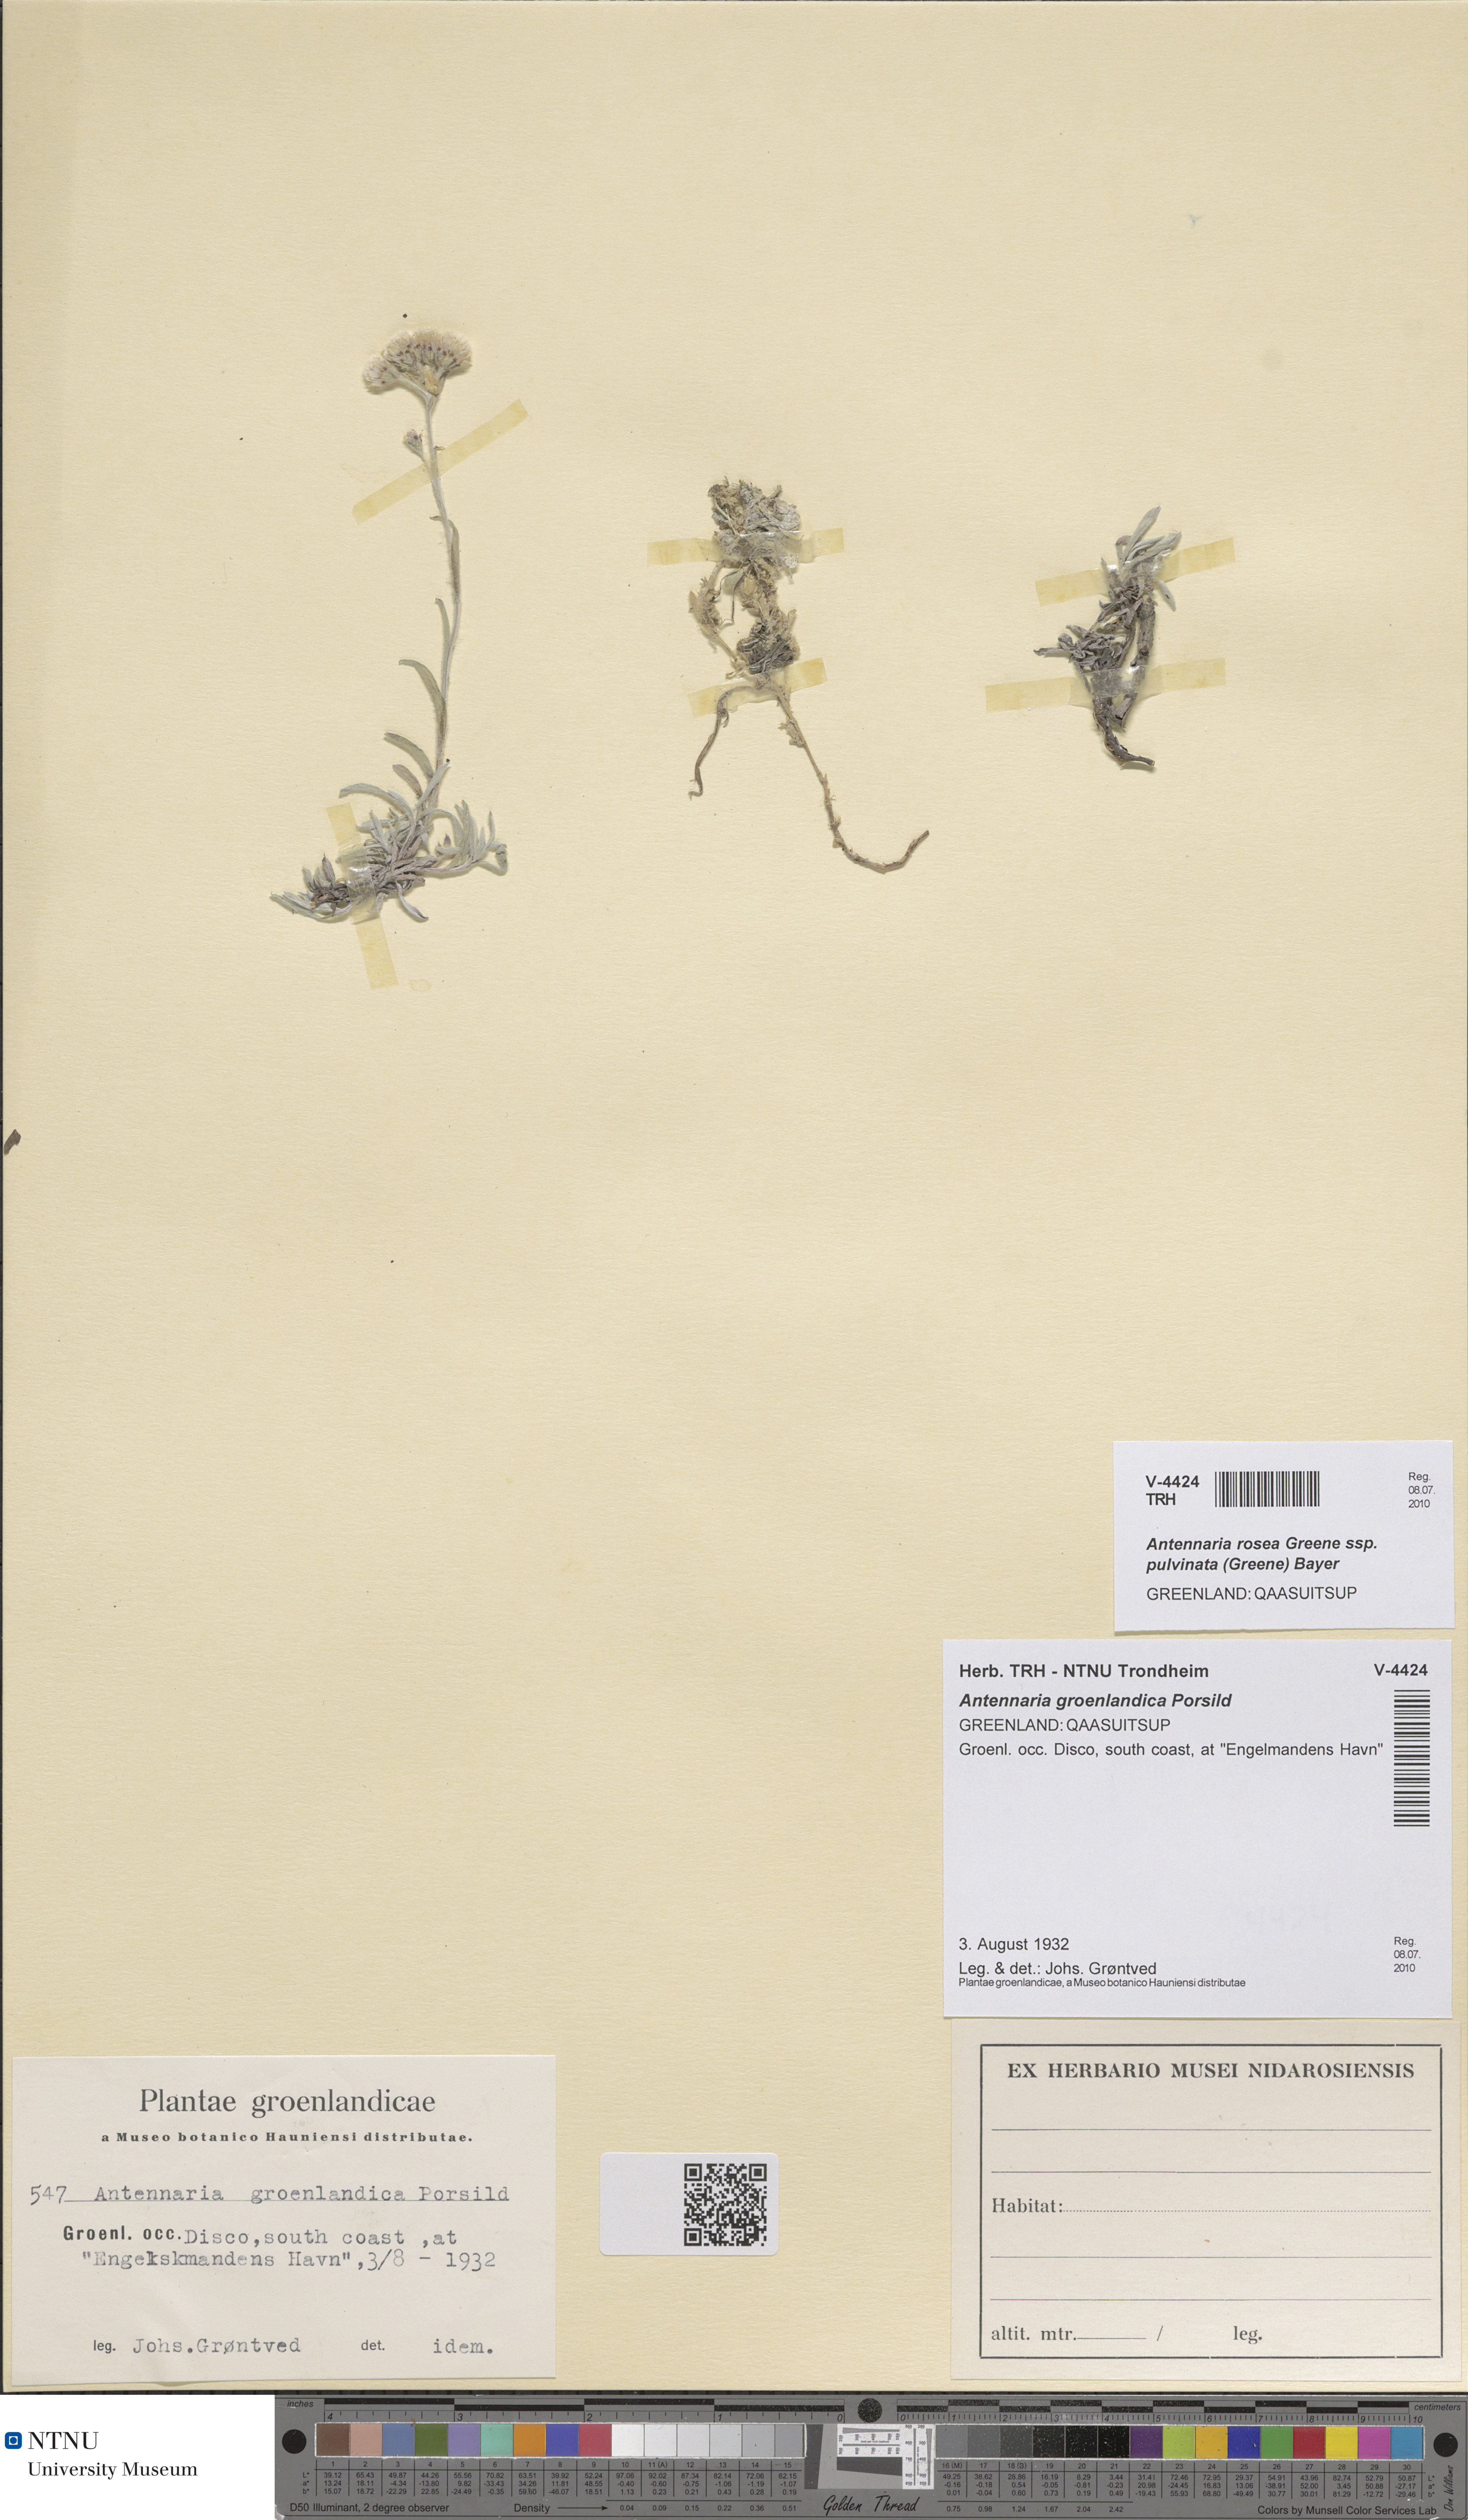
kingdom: Plantae
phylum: Tracheophyta
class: Magnoliopsida
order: Asterales
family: Asteraceae
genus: Antennaria
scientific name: Antennaria rosea
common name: Rosy pussytoes
